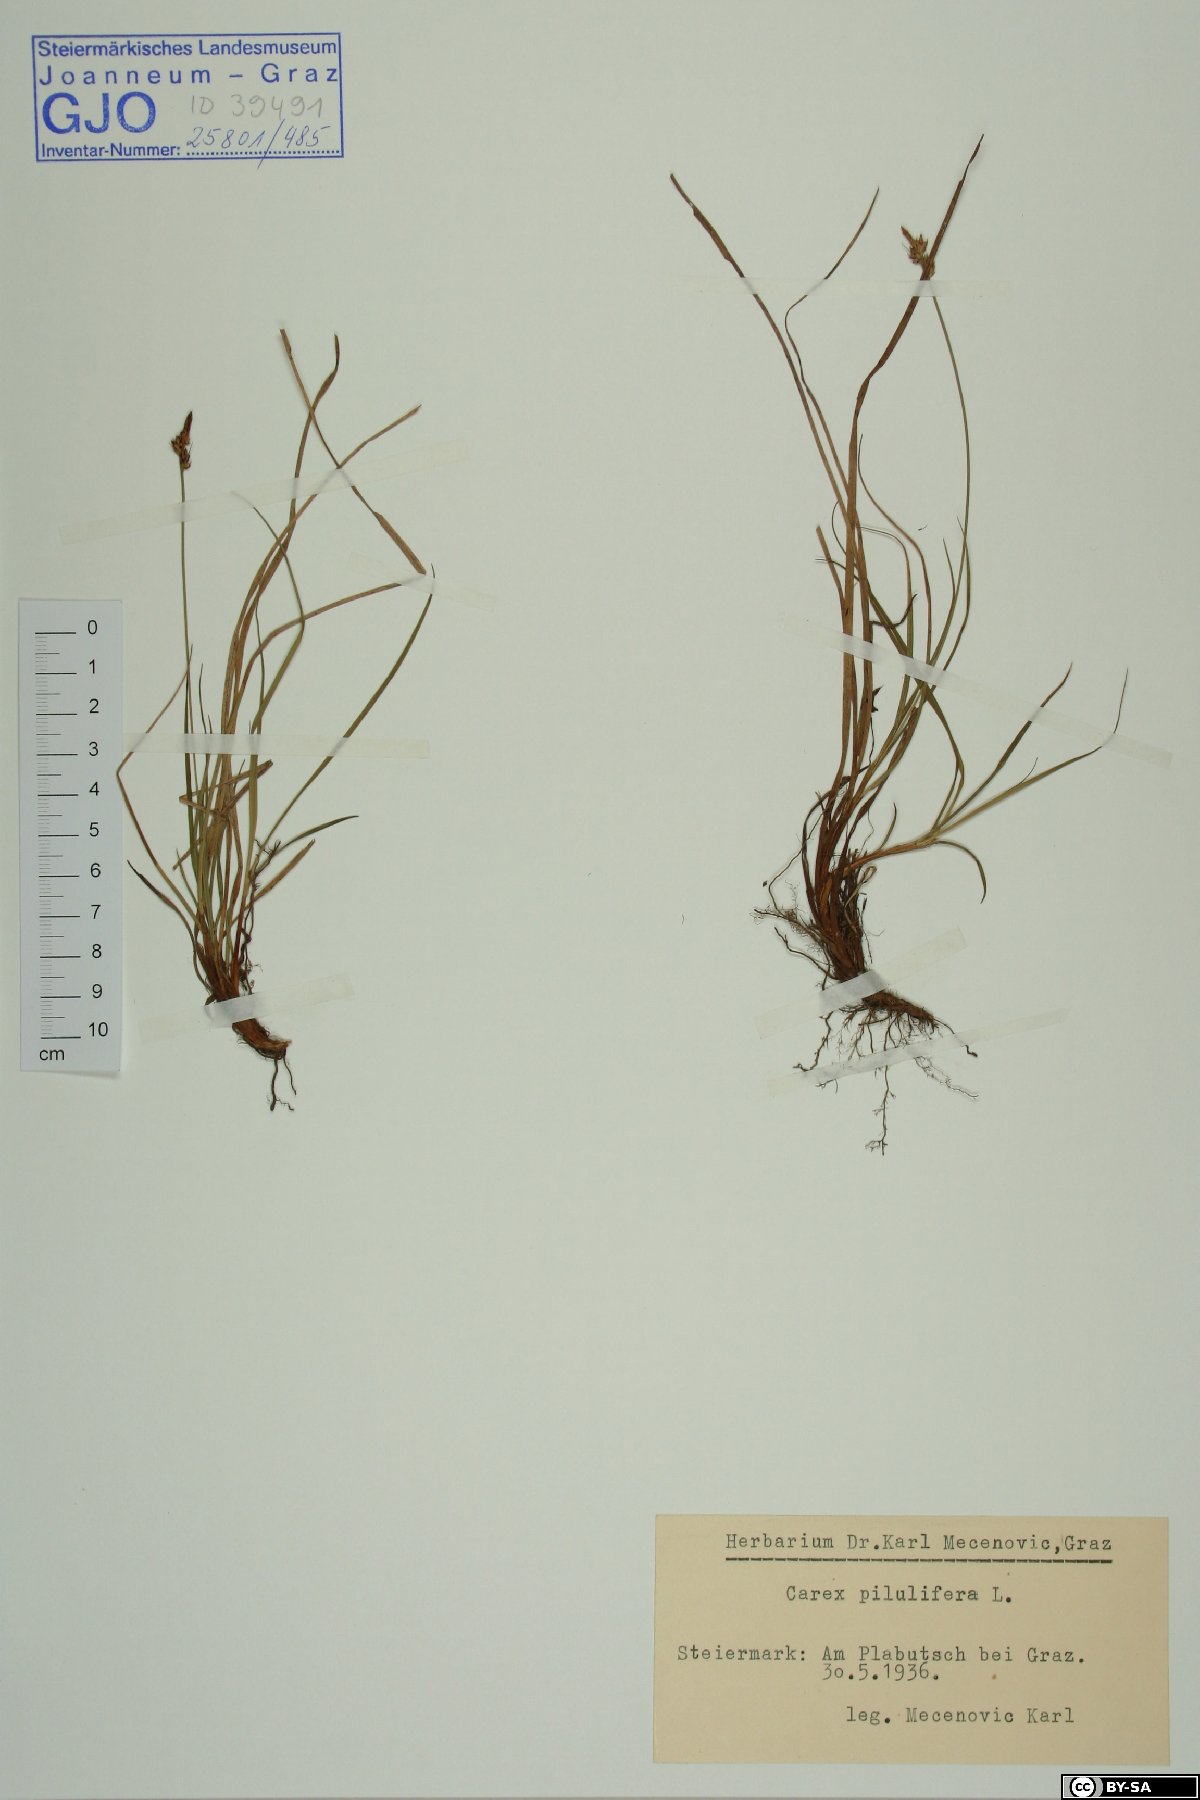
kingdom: Plantae
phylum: Tracheophyta
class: Liliopsida
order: Poales
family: Cyperaceae
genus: Carex
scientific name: Carex pilulifera
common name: Pill sedge
